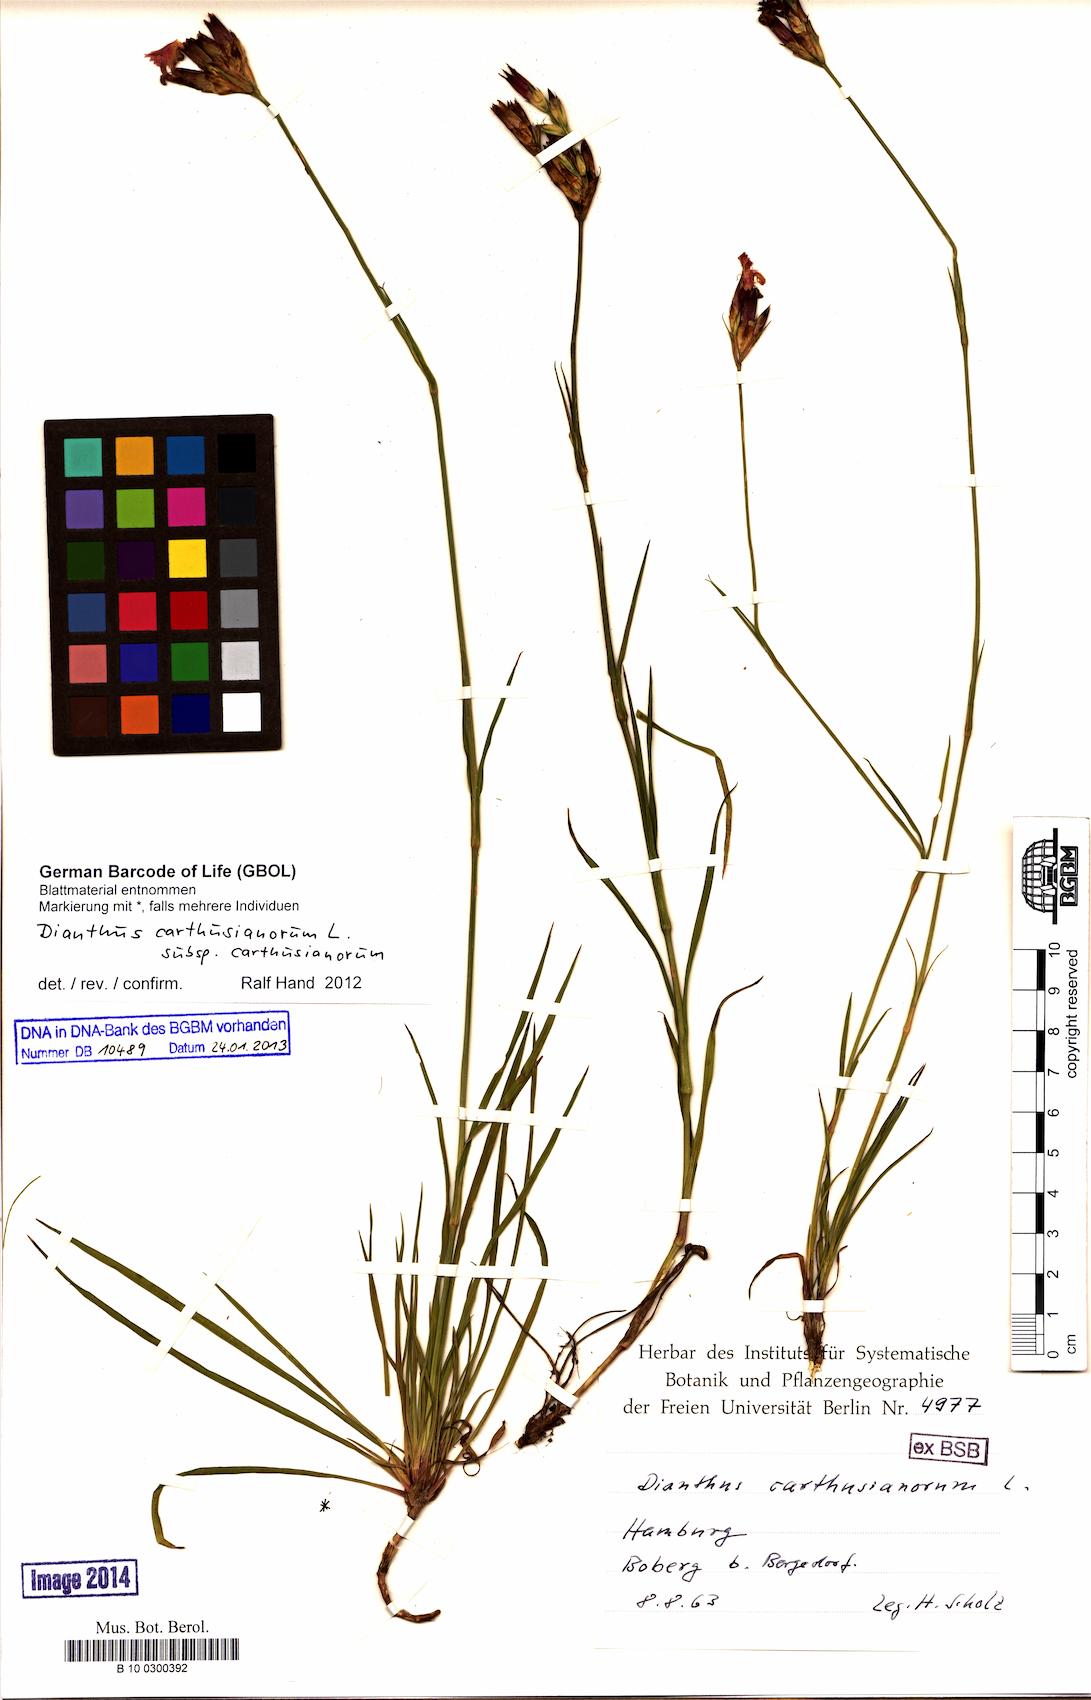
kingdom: Plantae
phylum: Tracheophyta
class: Magnoliopsida
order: Caryophyllales
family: Caryophyllaceae
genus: Dianthus
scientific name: Dianthus carthusianorum
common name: Carthusian pink
